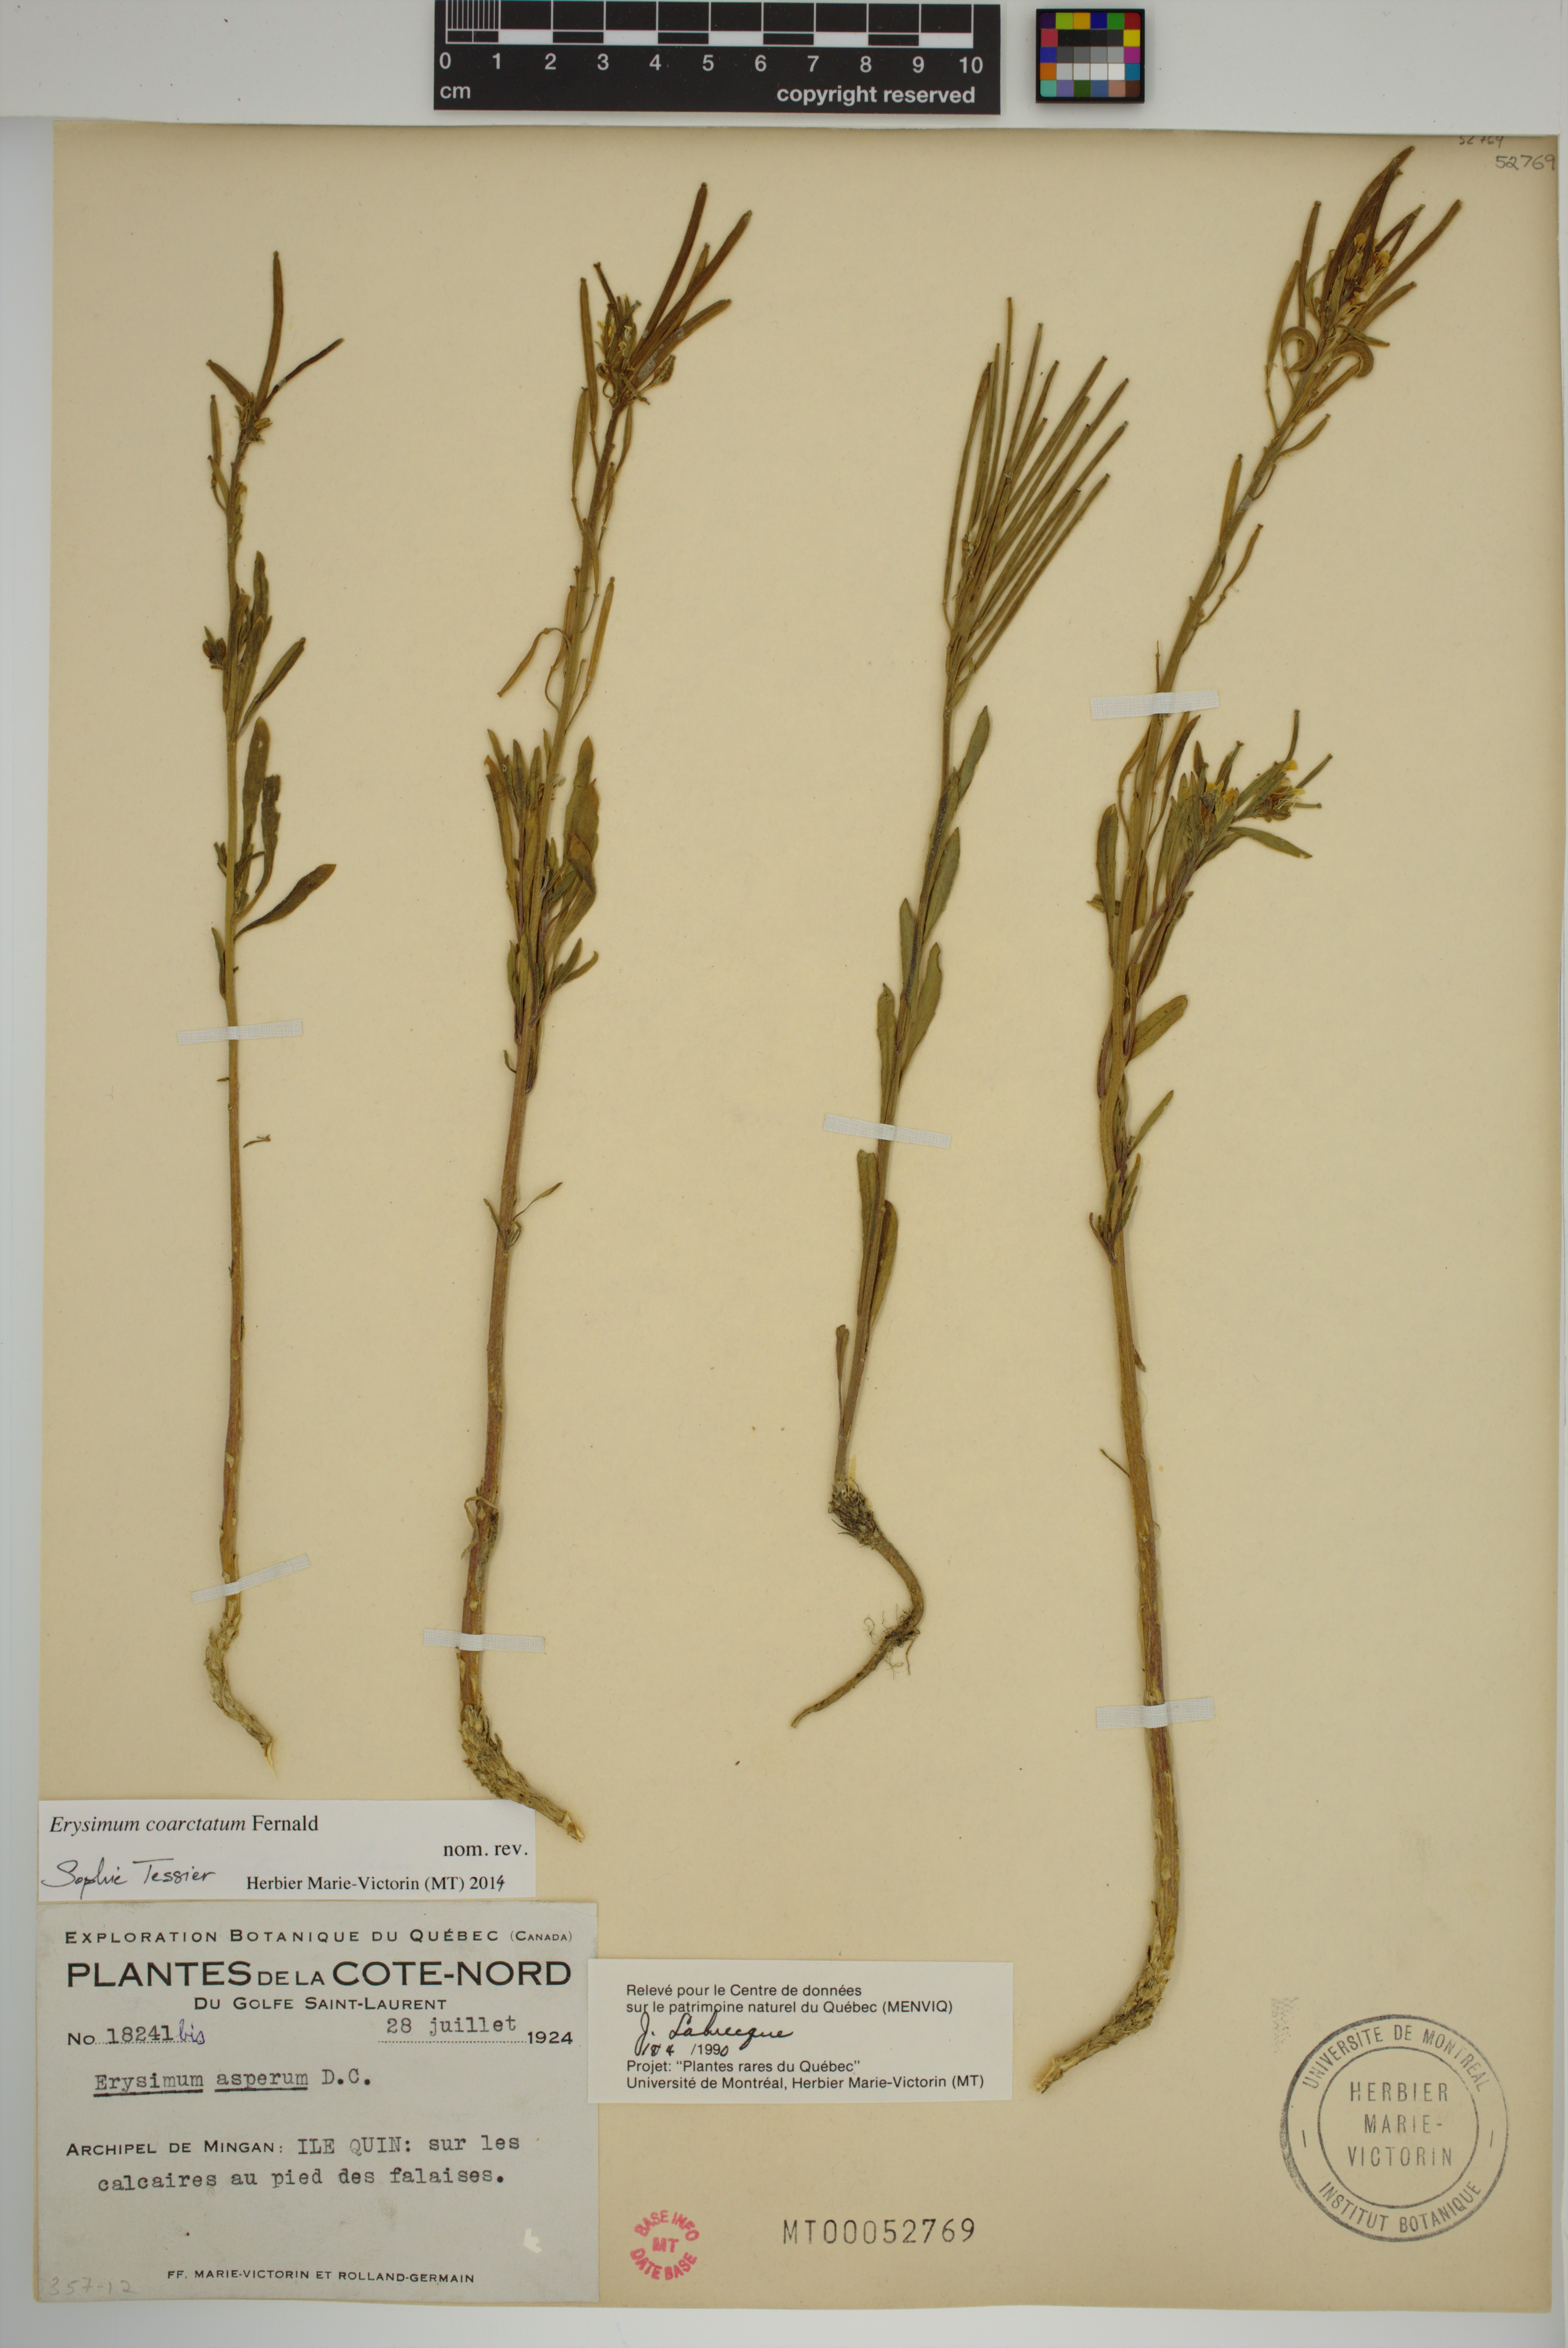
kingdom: Plantae
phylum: Tracheophyta
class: Magnoliopsida
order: Brassicales
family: Brassicaceae
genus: Erysimum
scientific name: Erysimum coarctatum
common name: Gulf of st. lawrence wormseed mustard
